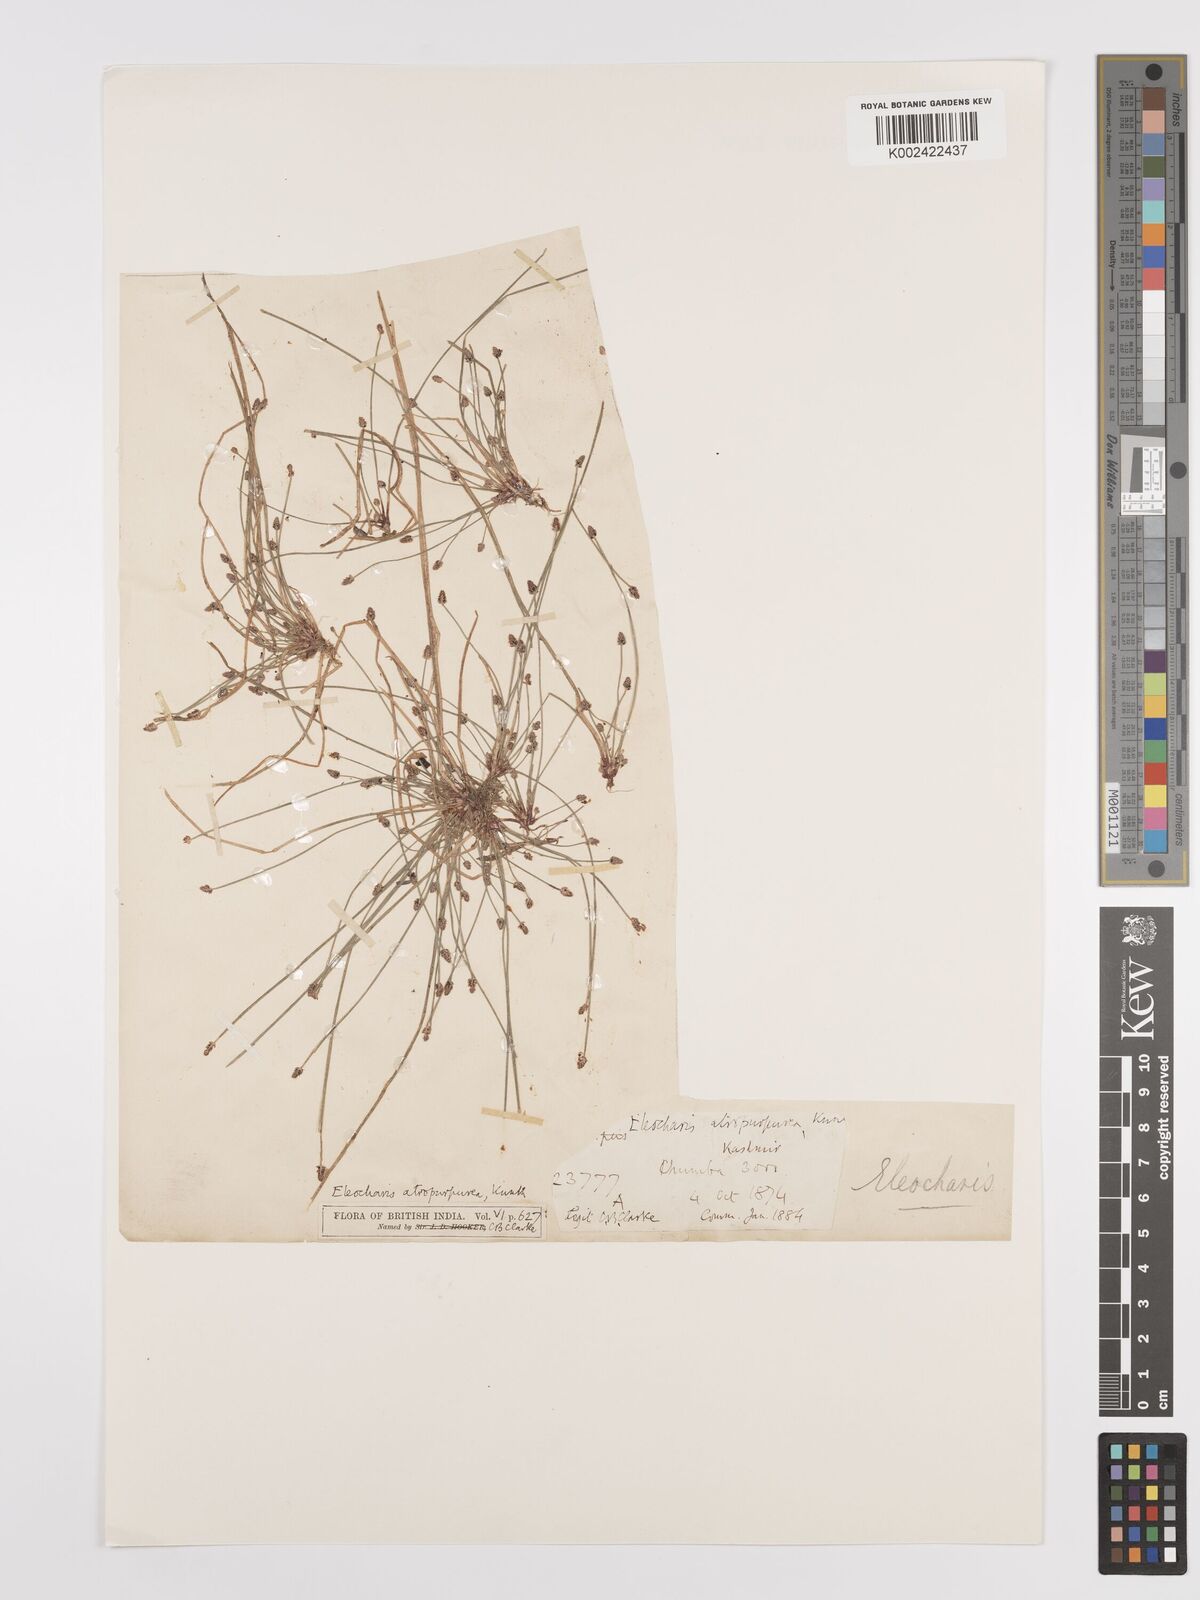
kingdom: Plantae
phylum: Tracheophyta
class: Liliopsida
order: Poales
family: Cyperaceae
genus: Eleocharis
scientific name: Eleocharis atropurpurea
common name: Purple spikerush
